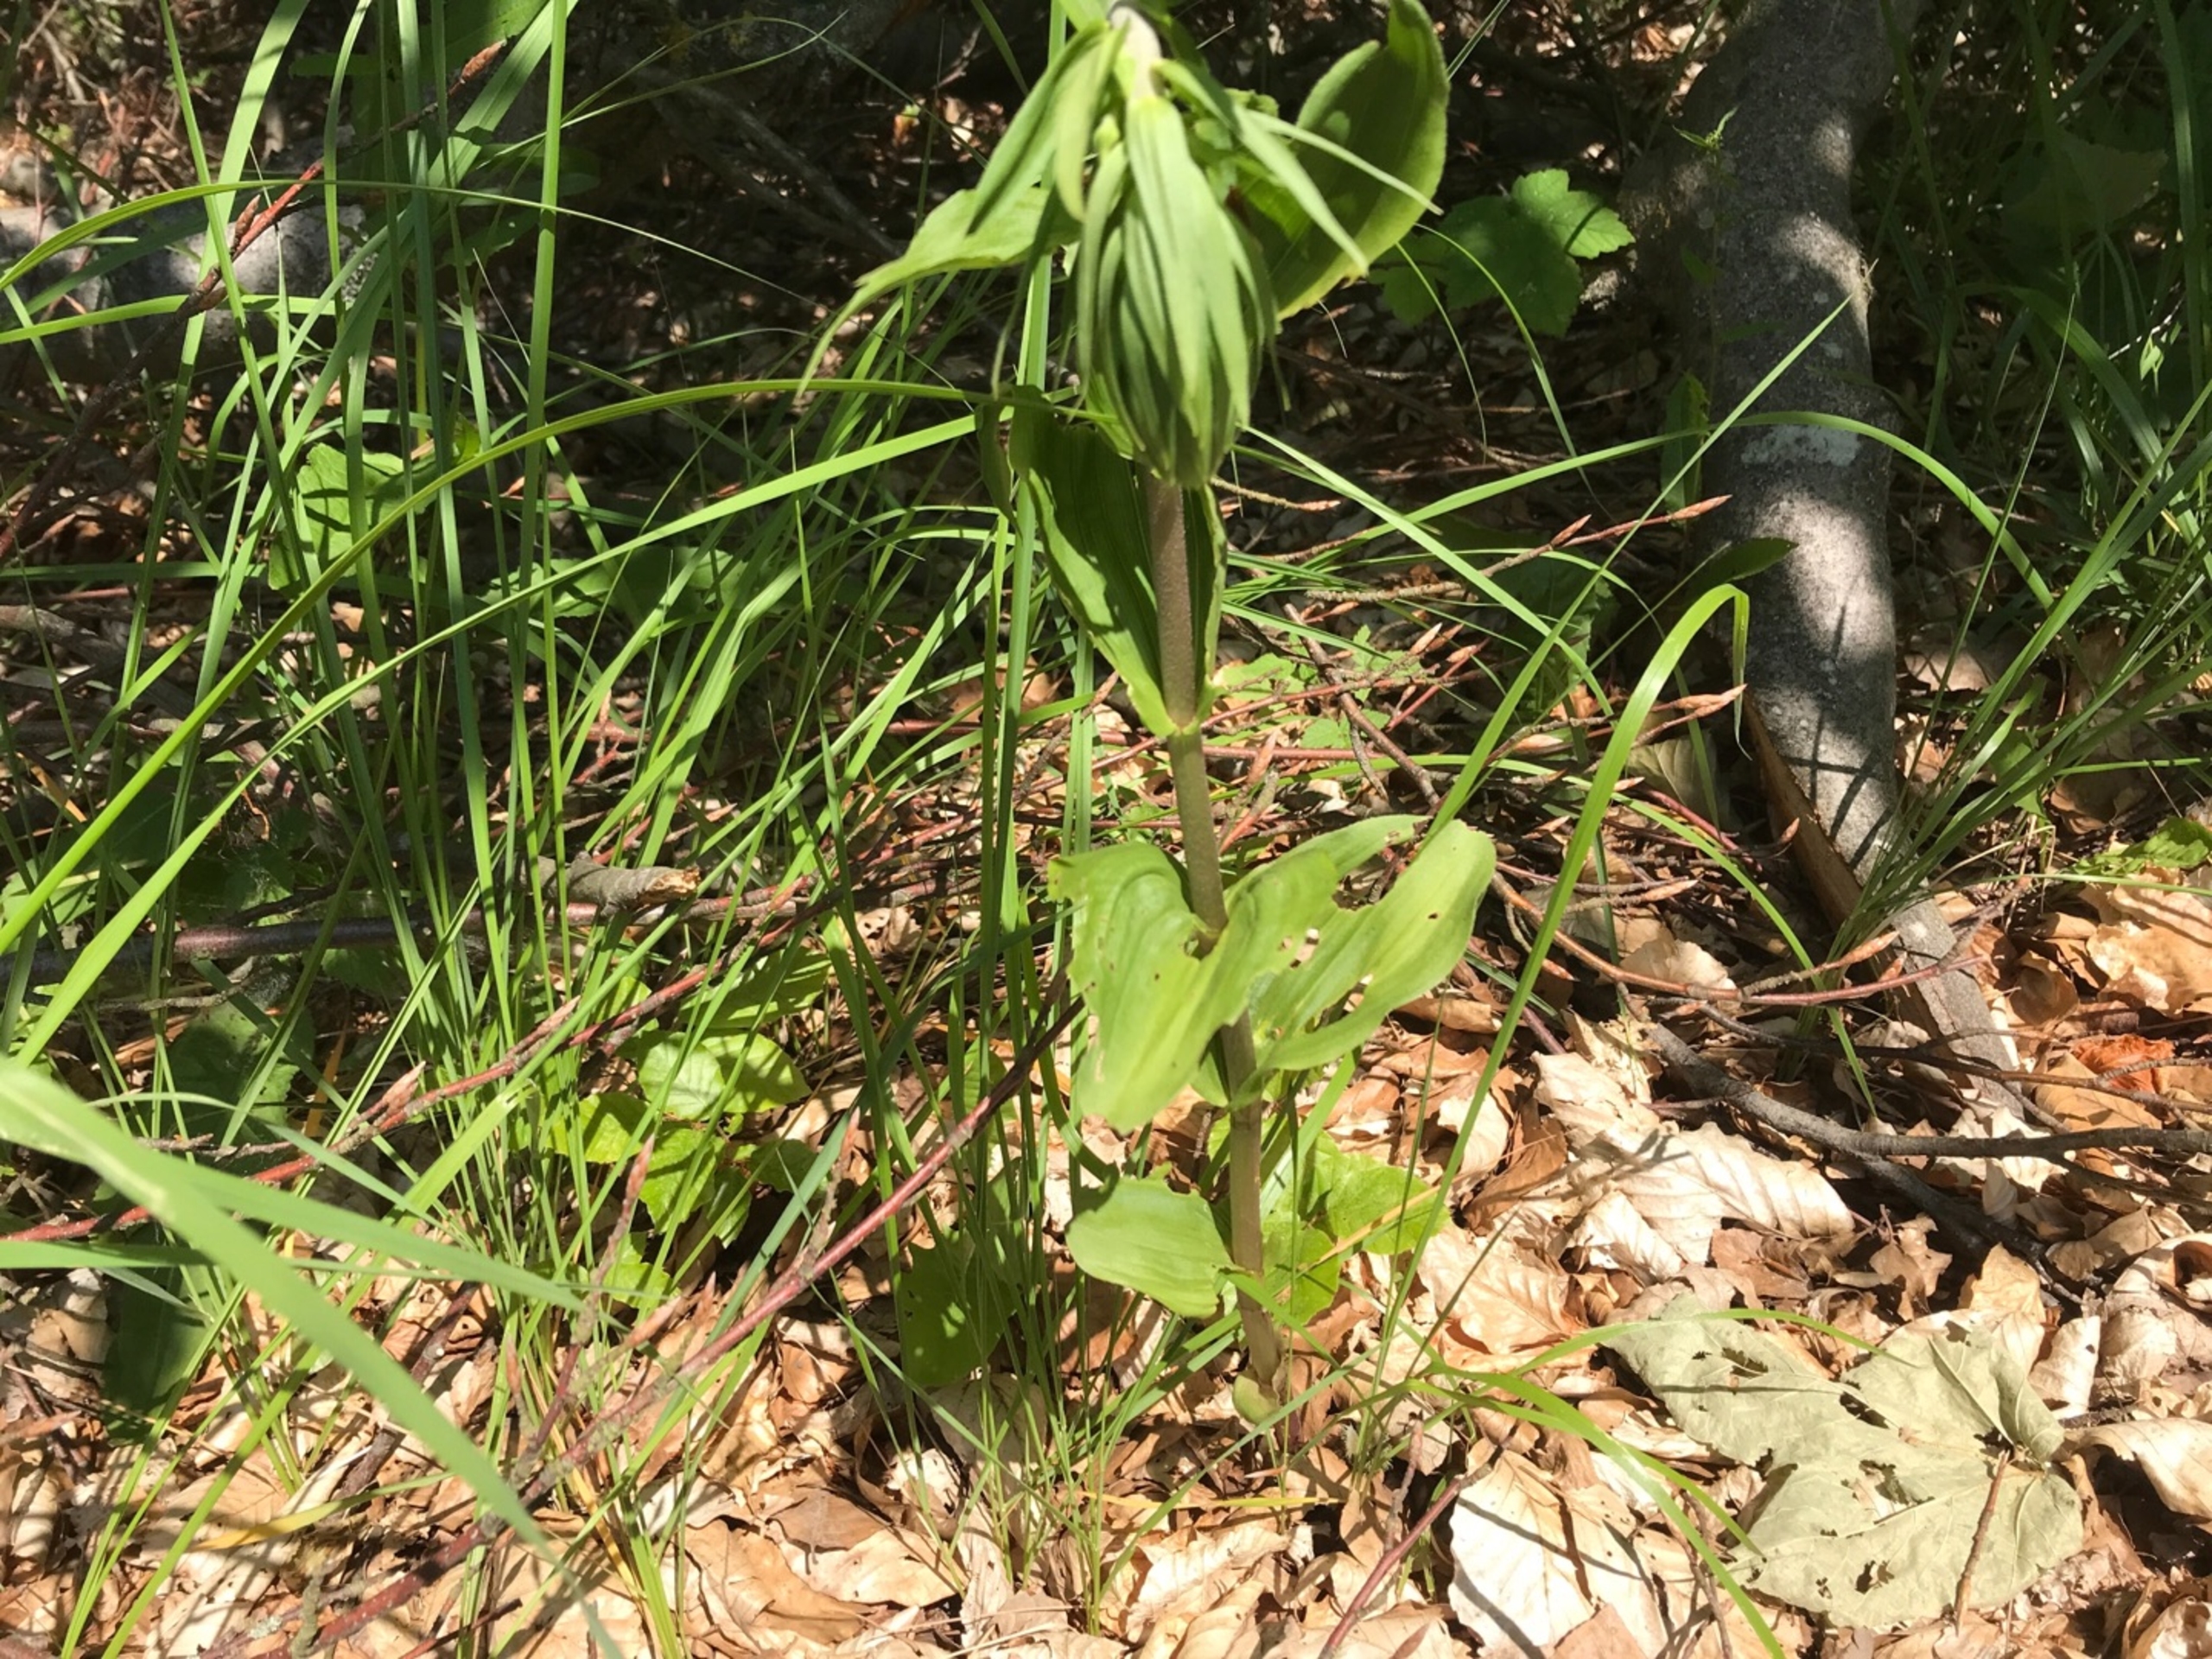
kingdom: Plantae
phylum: Tracheophyta
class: Liliopsida
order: Asparagales
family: Orchidaceae
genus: Epipactis
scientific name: Epipactis helleborine
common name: Skov-hullæbe
